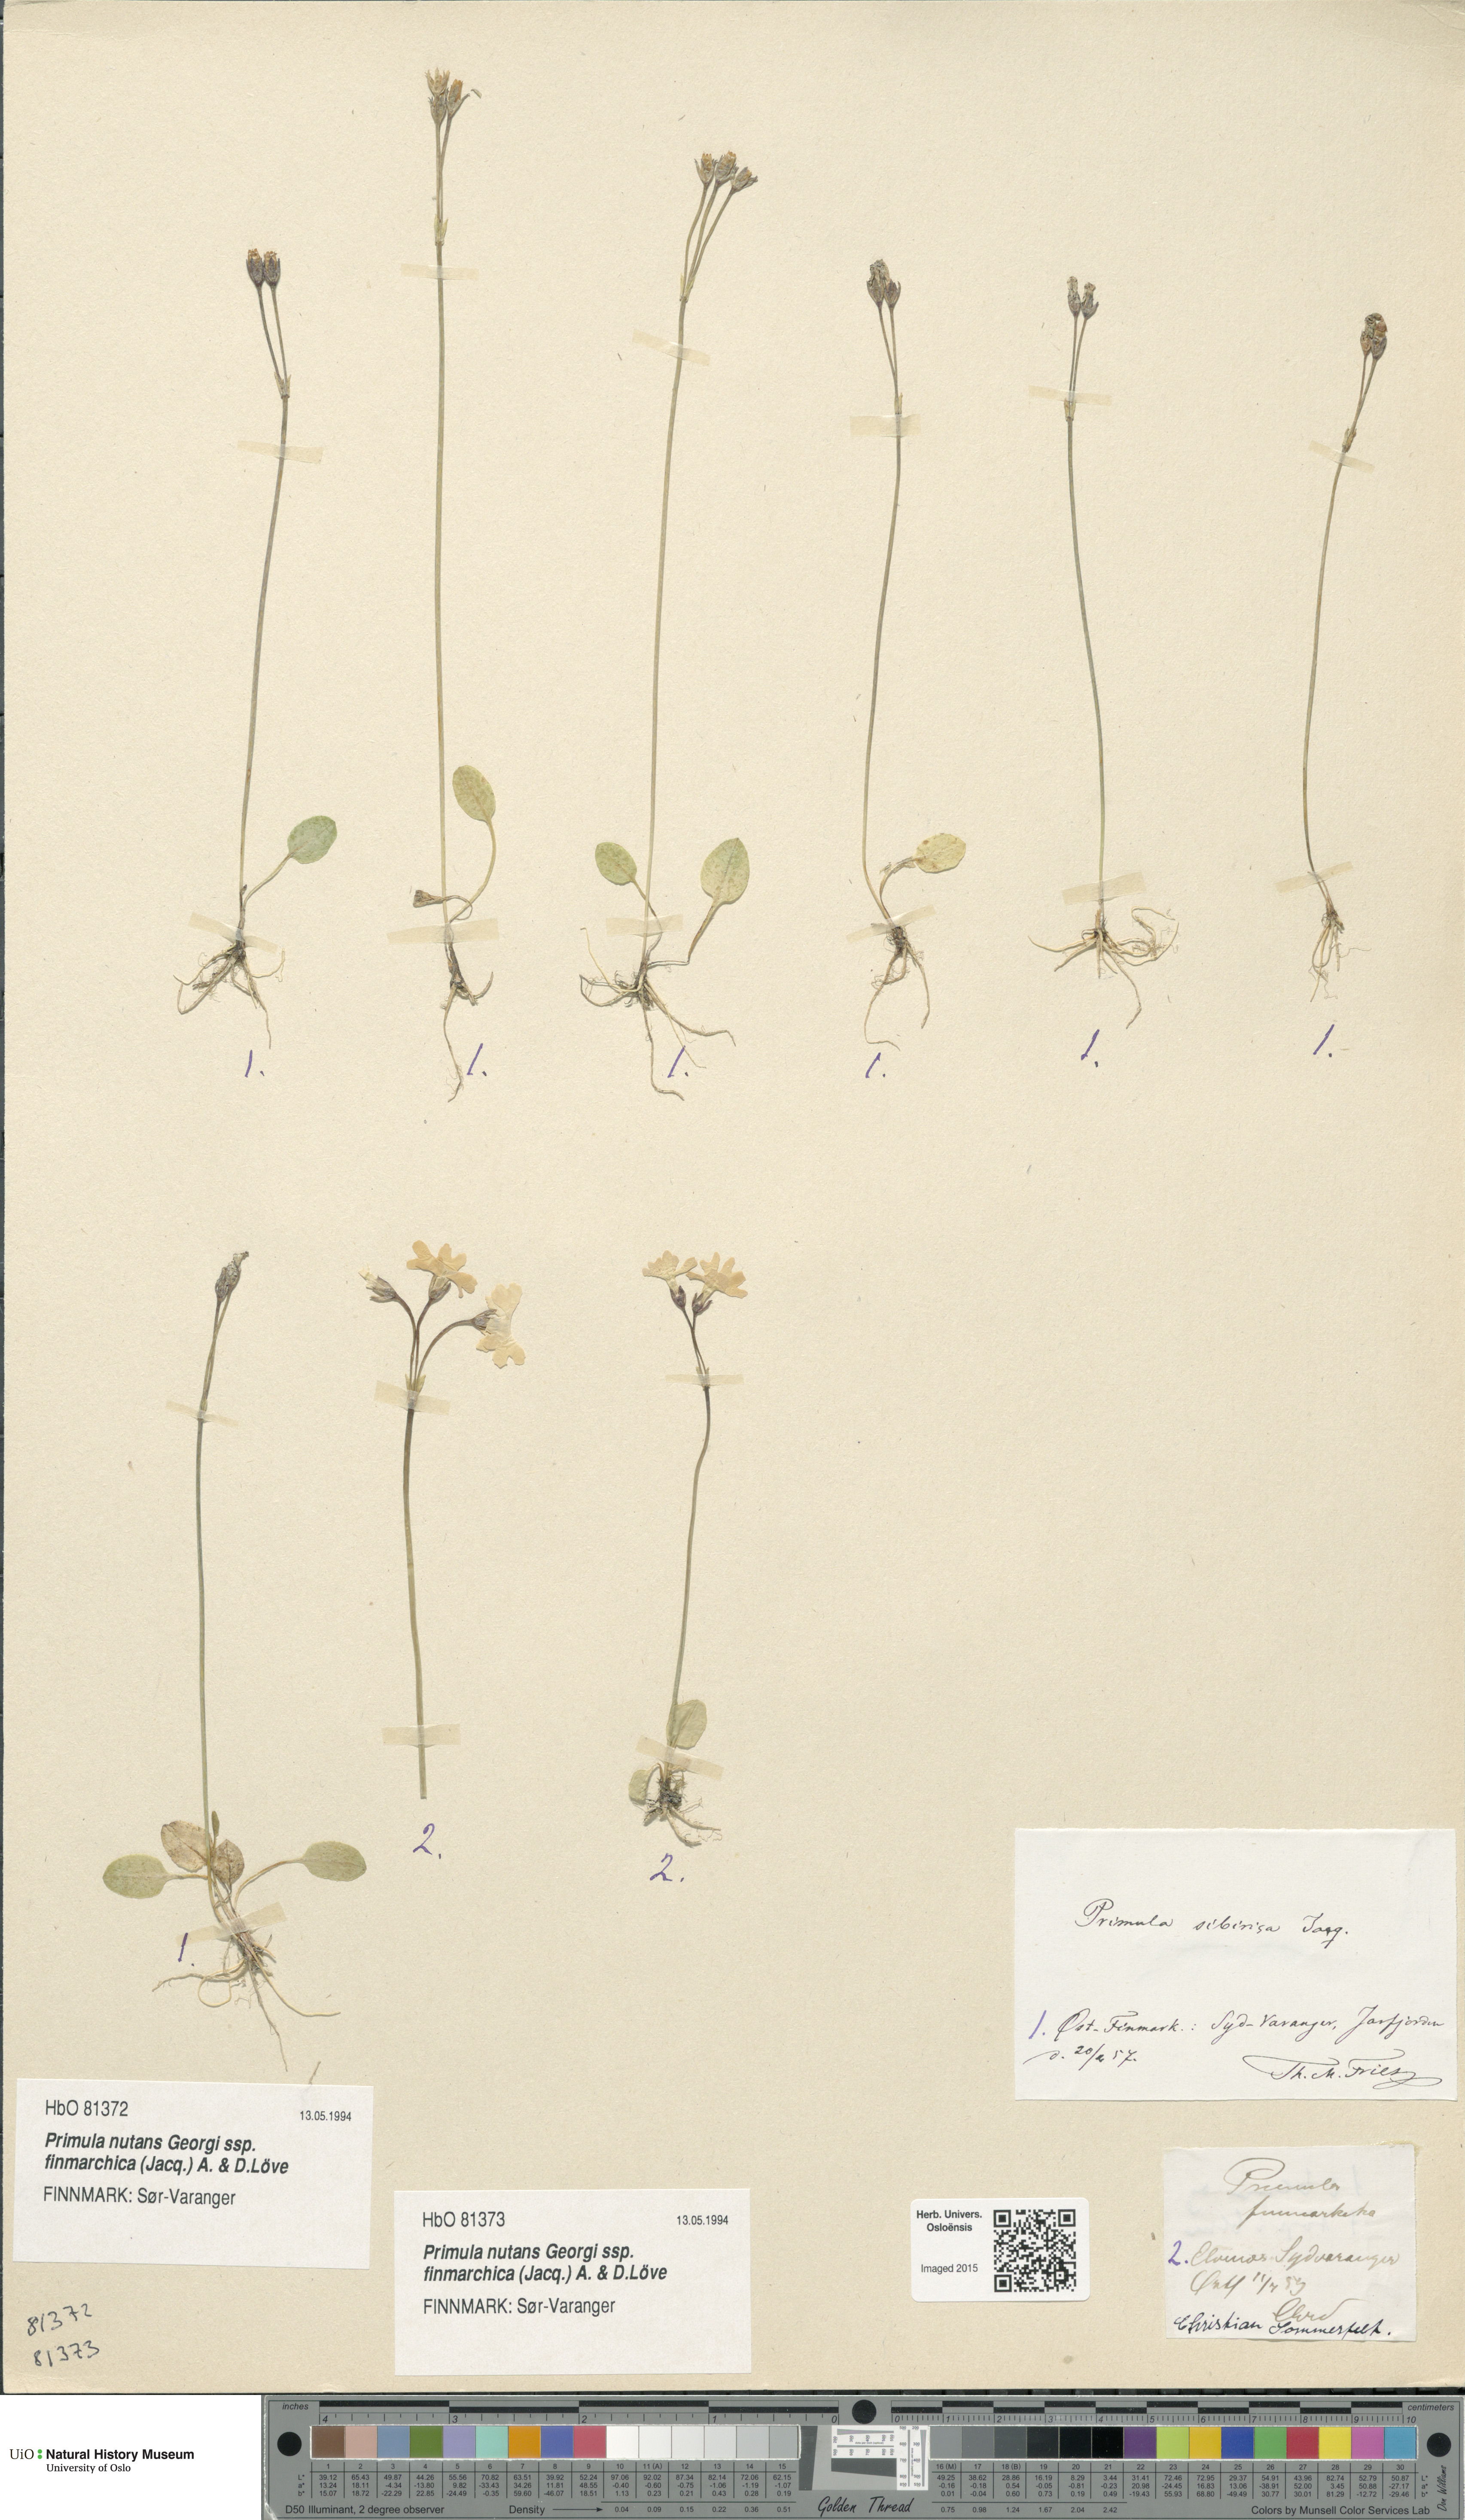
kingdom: Plantae
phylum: Tracheophyta
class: Magnoliopsida
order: Ericales
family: Primulaceae
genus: Primula
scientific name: Primula nutans
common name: Siberian primrose
